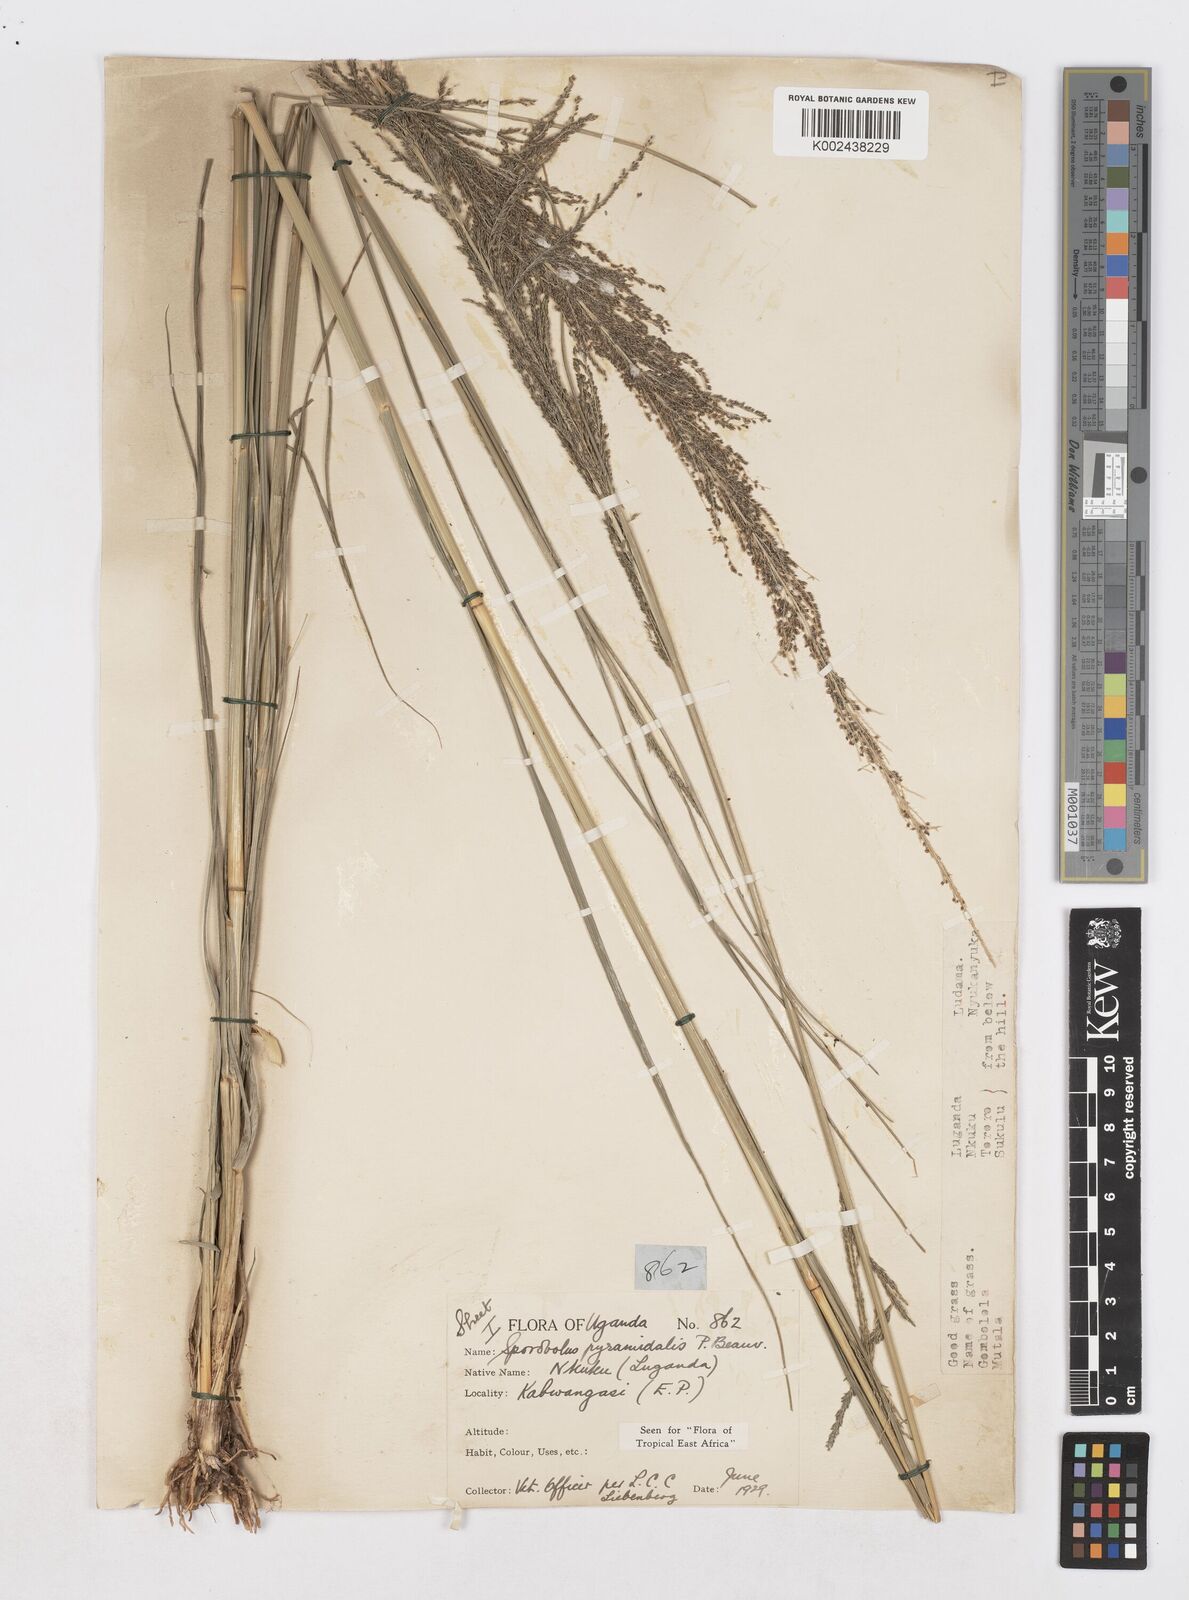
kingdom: Plantae
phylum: Tracheophyta
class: Liliopsida
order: Poales
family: Poaceae
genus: Sporobolus
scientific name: Sporobolus pyramidalis
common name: West indian dropseed
